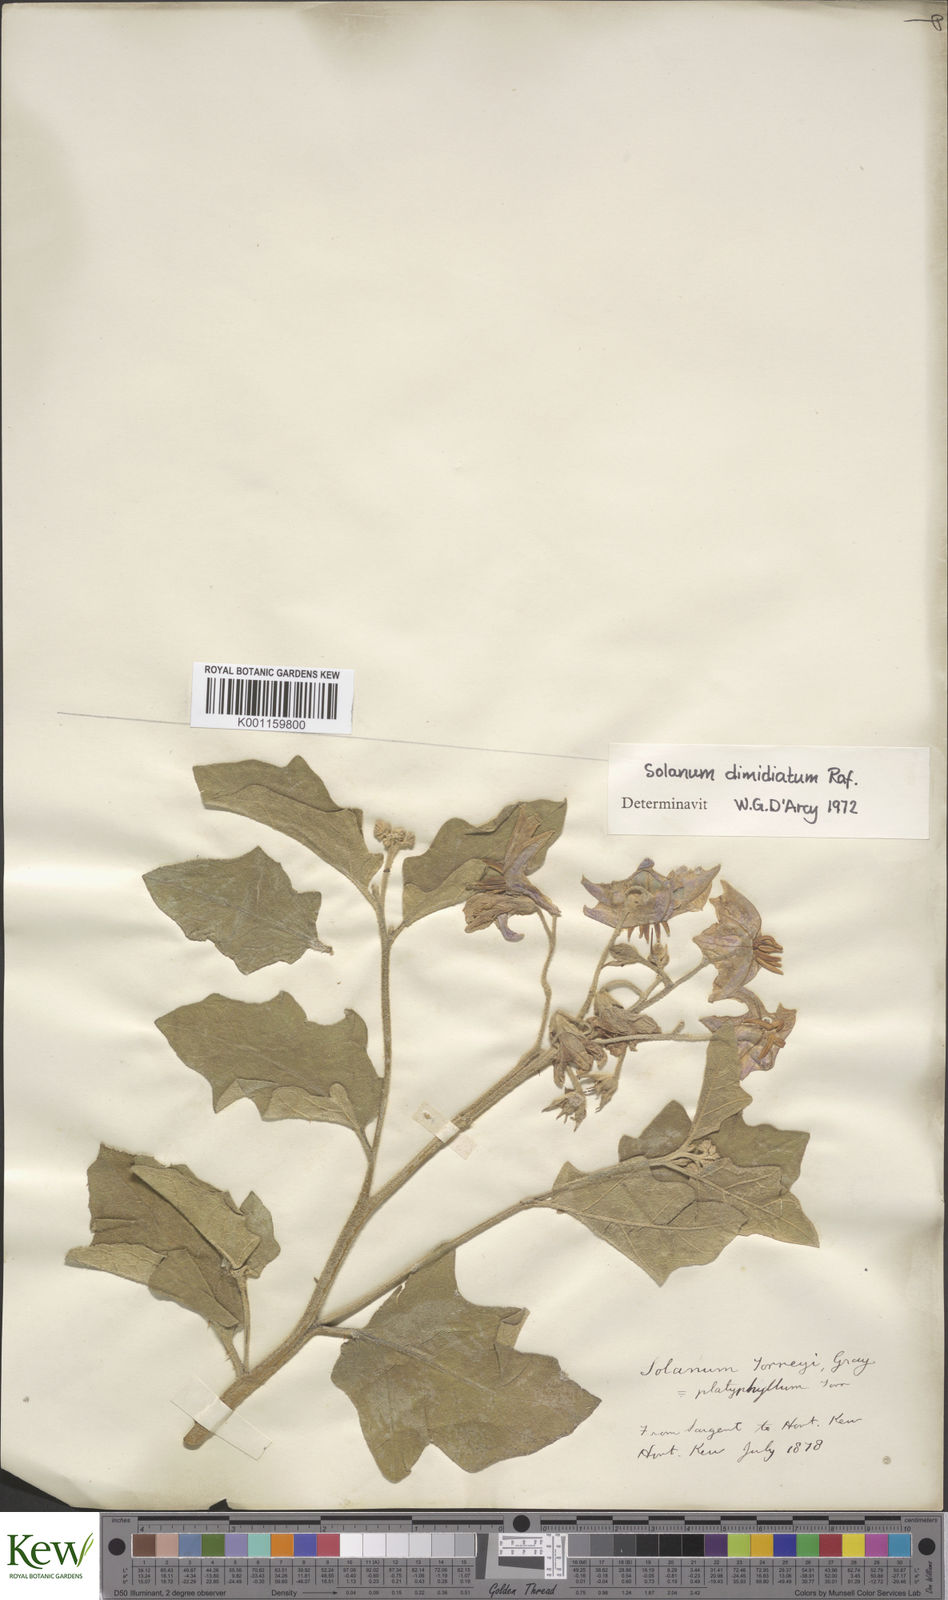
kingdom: Plantae
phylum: Tracheophyta
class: Magnoliopsida
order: Solanales
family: Solanaceae
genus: Solanum
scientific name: Solanum
